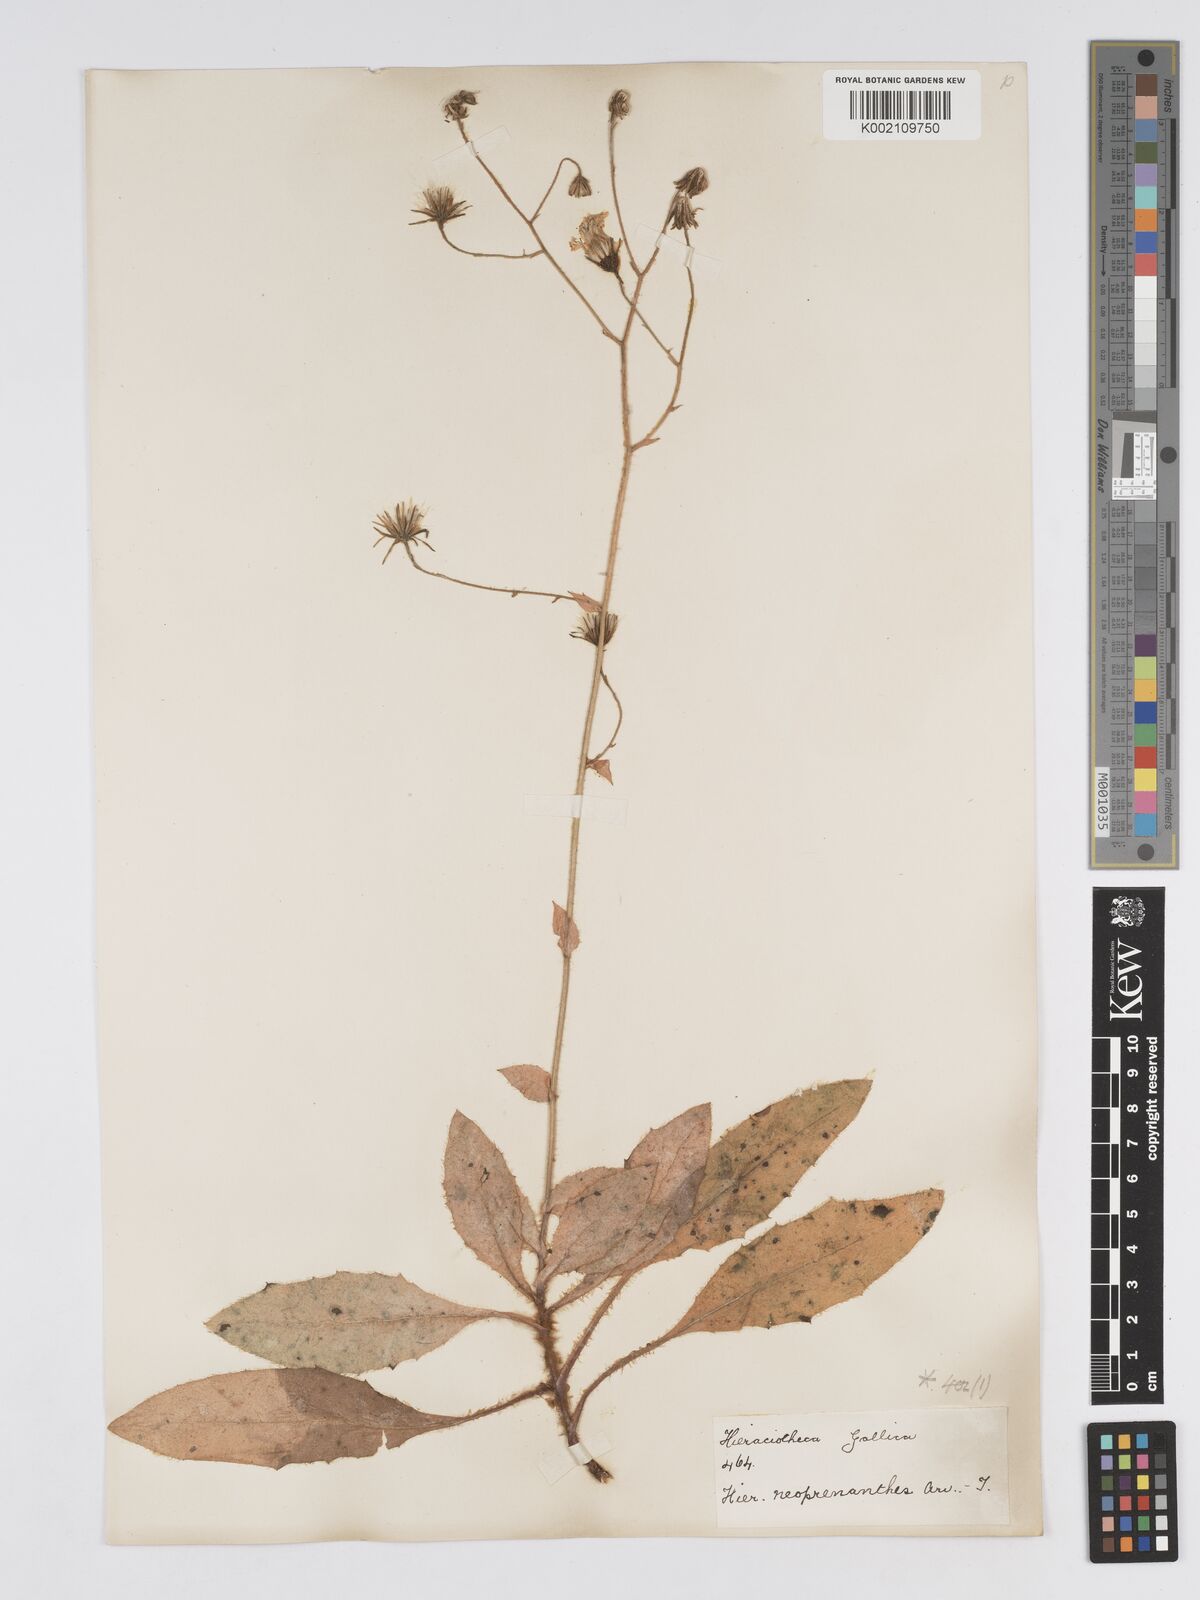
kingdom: Plantae
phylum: Tracheophyta
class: Magnoliopsida
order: Asterales
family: Asteraceae
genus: Hieracium
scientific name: Hieracium symphytaceum
